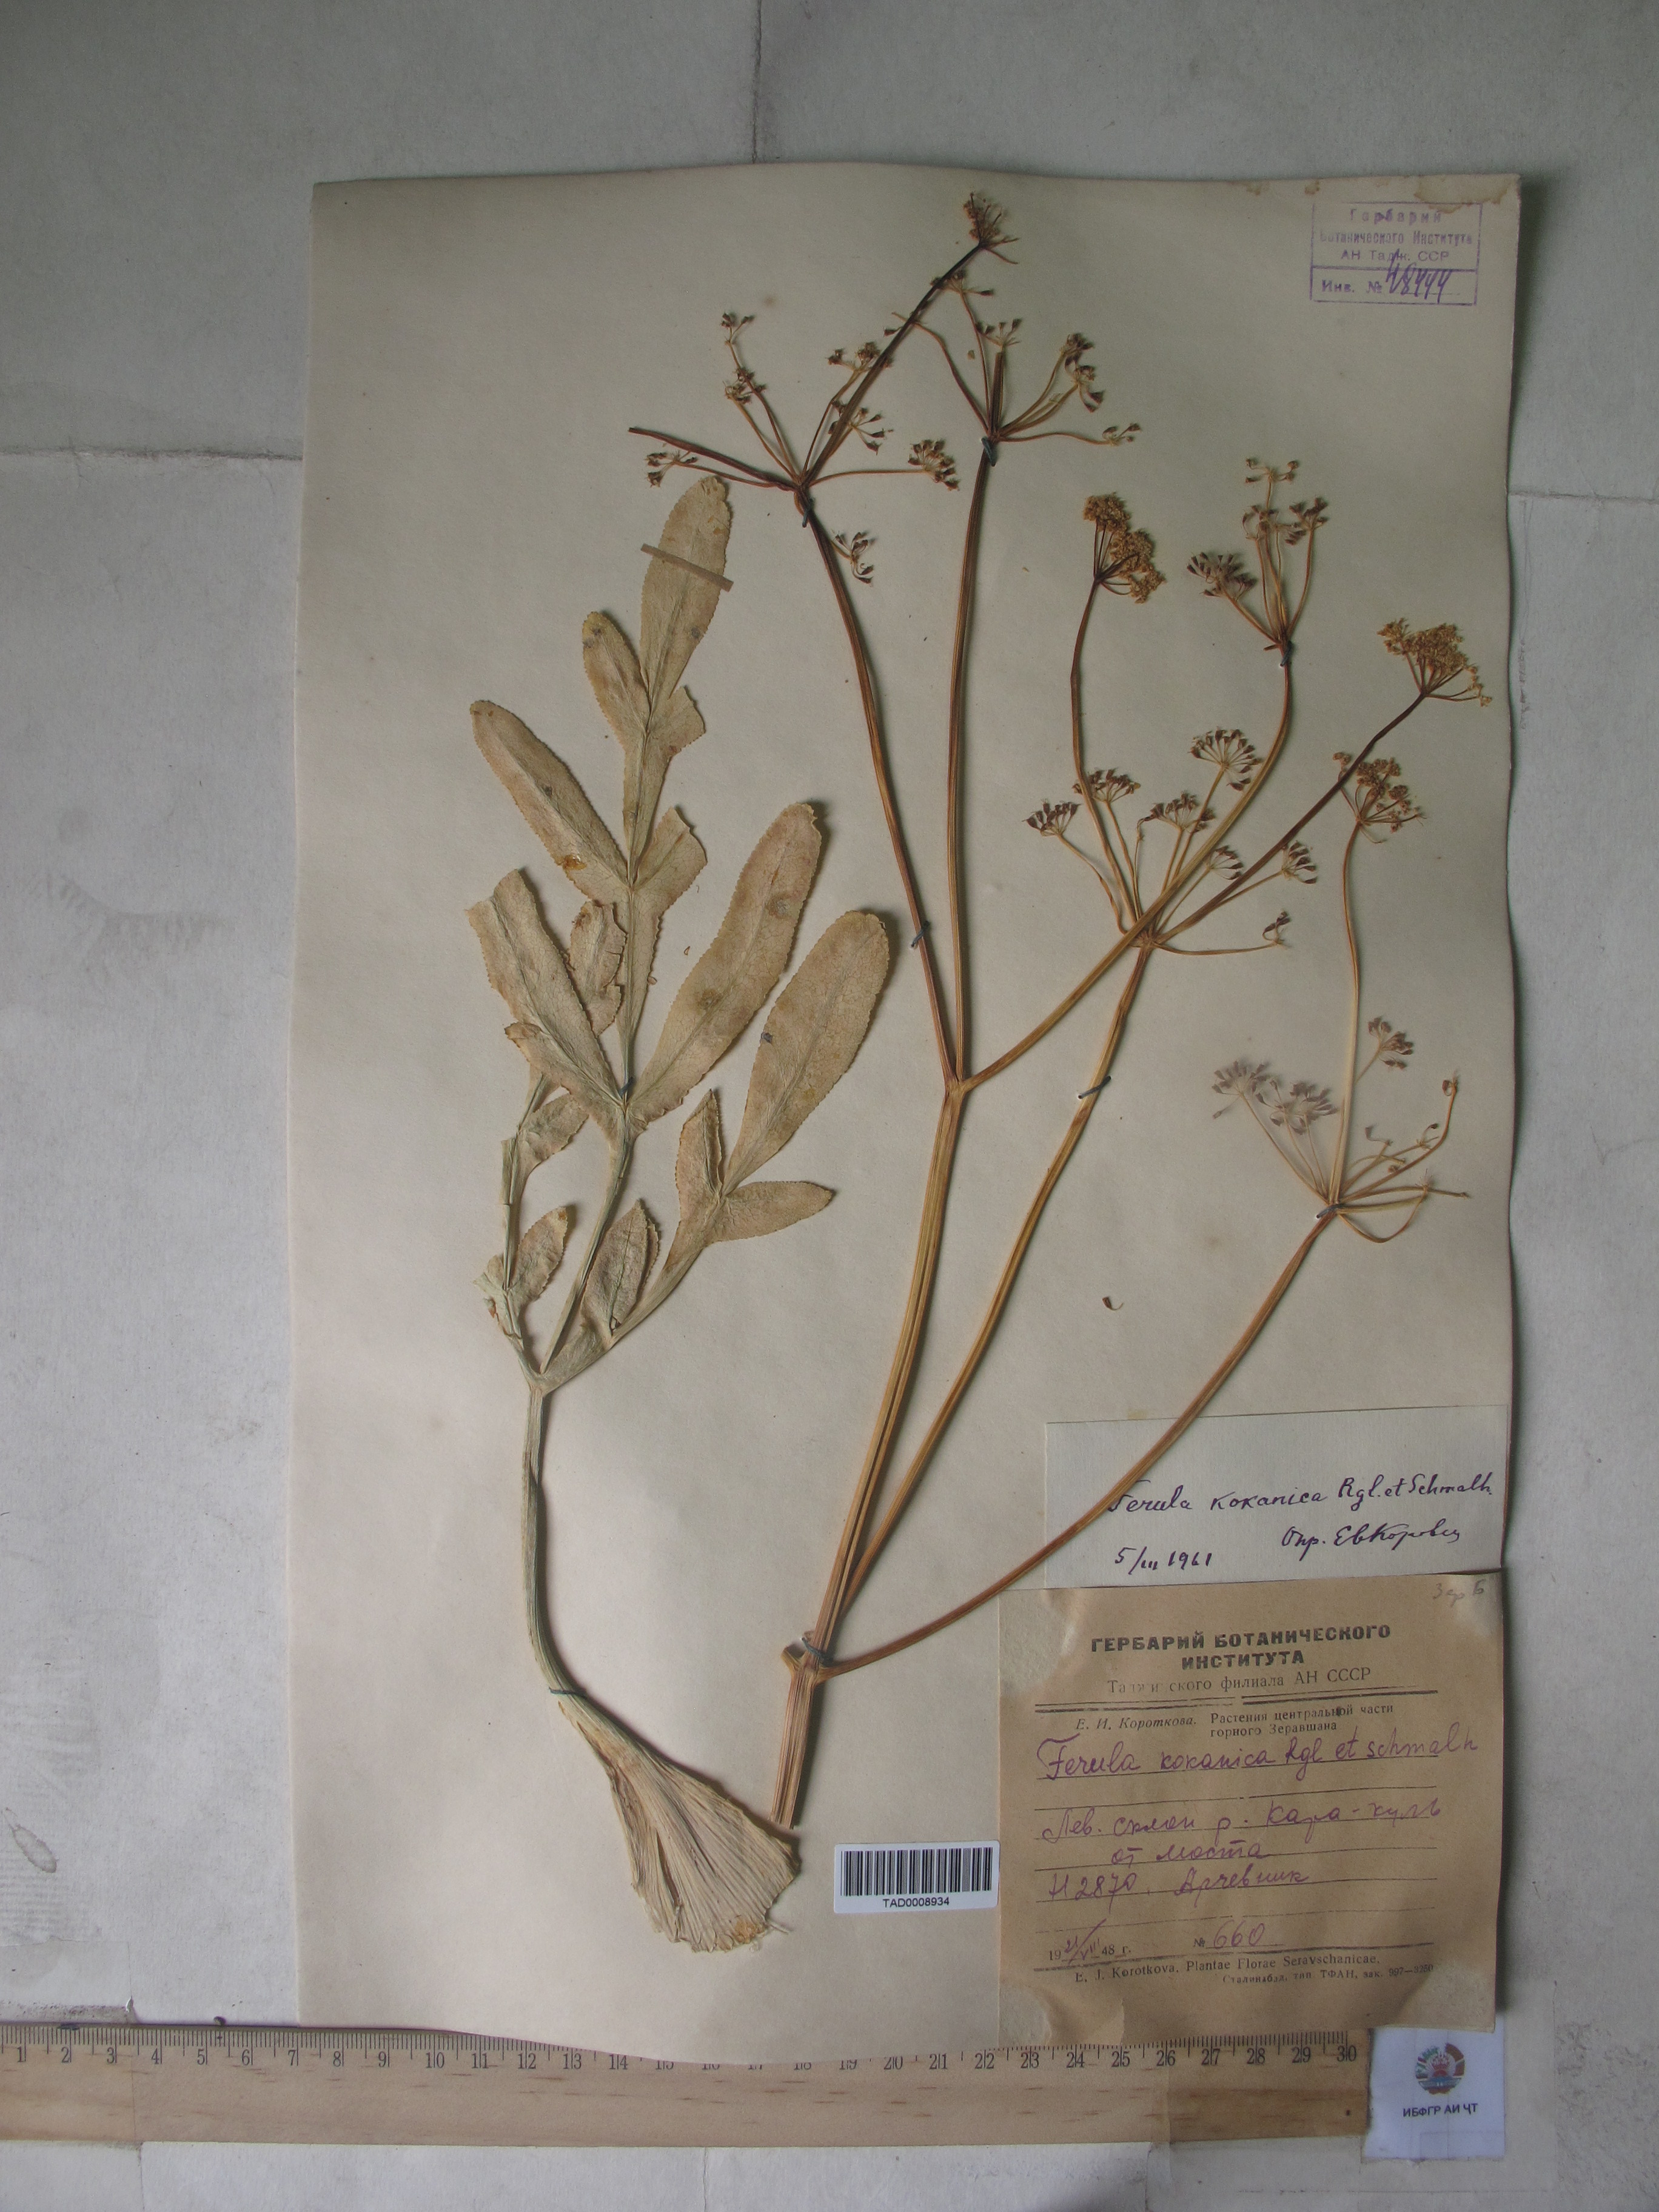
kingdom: Plantae
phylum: Tracheophyta
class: Magnoliopsida
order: Apiales
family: Apiaceae
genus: Ferula
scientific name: Ferula kokanica
